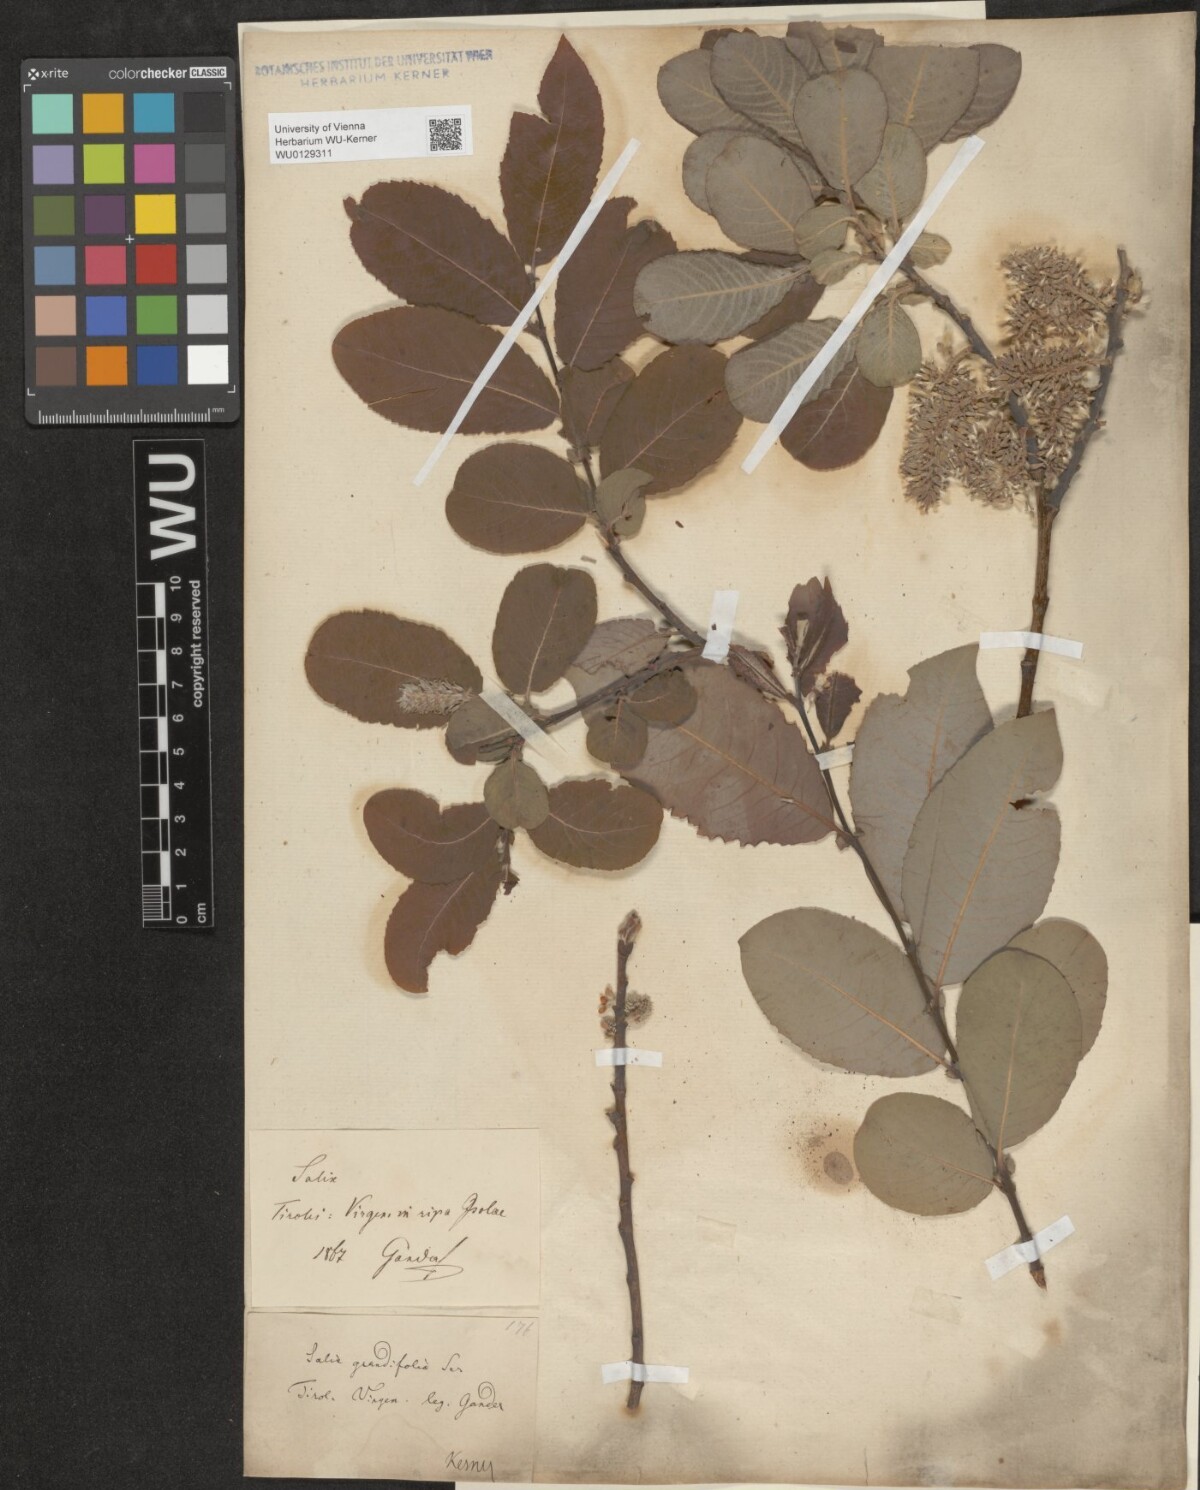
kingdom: Plantae
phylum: Tracheophyta
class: Magnoliopsida
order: Malpighiales
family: Salicaceae
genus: Salix
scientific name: Salix appendiculata
